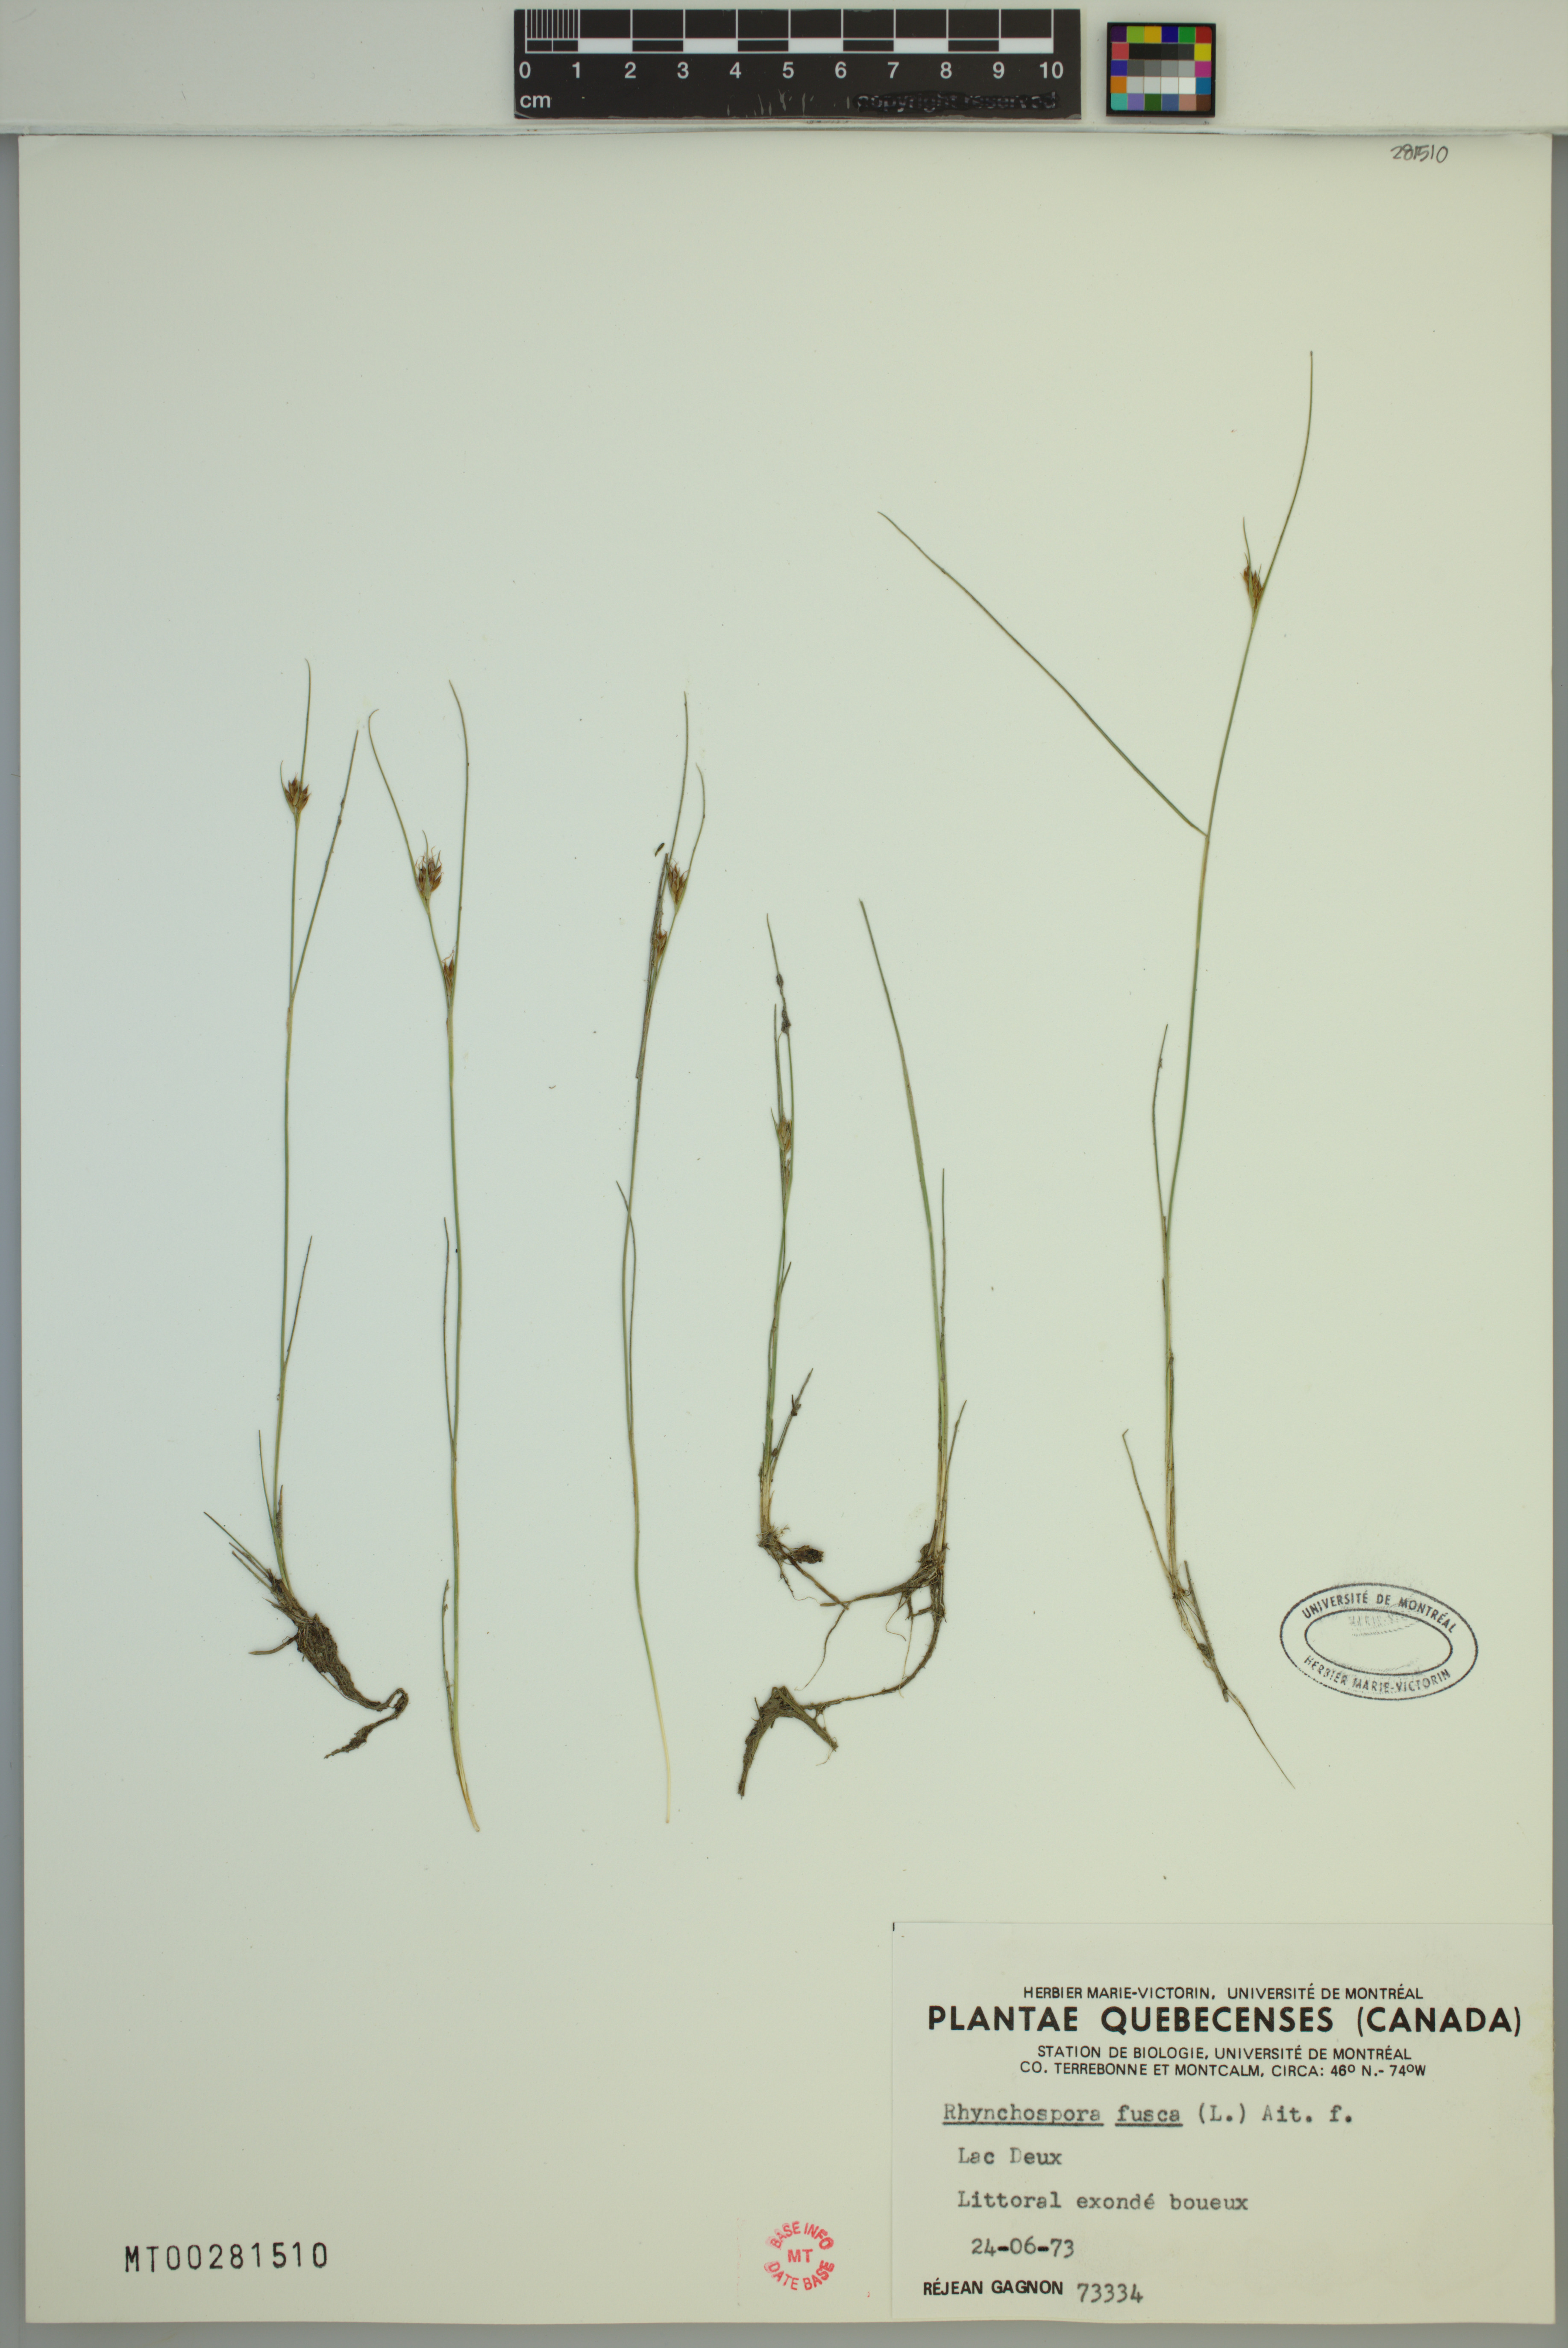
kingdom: Plantae
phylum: Tracheophyta
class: Liliopsida
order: Poales
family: Cyperaceae
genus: Rhynchospora
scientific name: Rhynchospora fusca
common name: Brown beak-sedge
